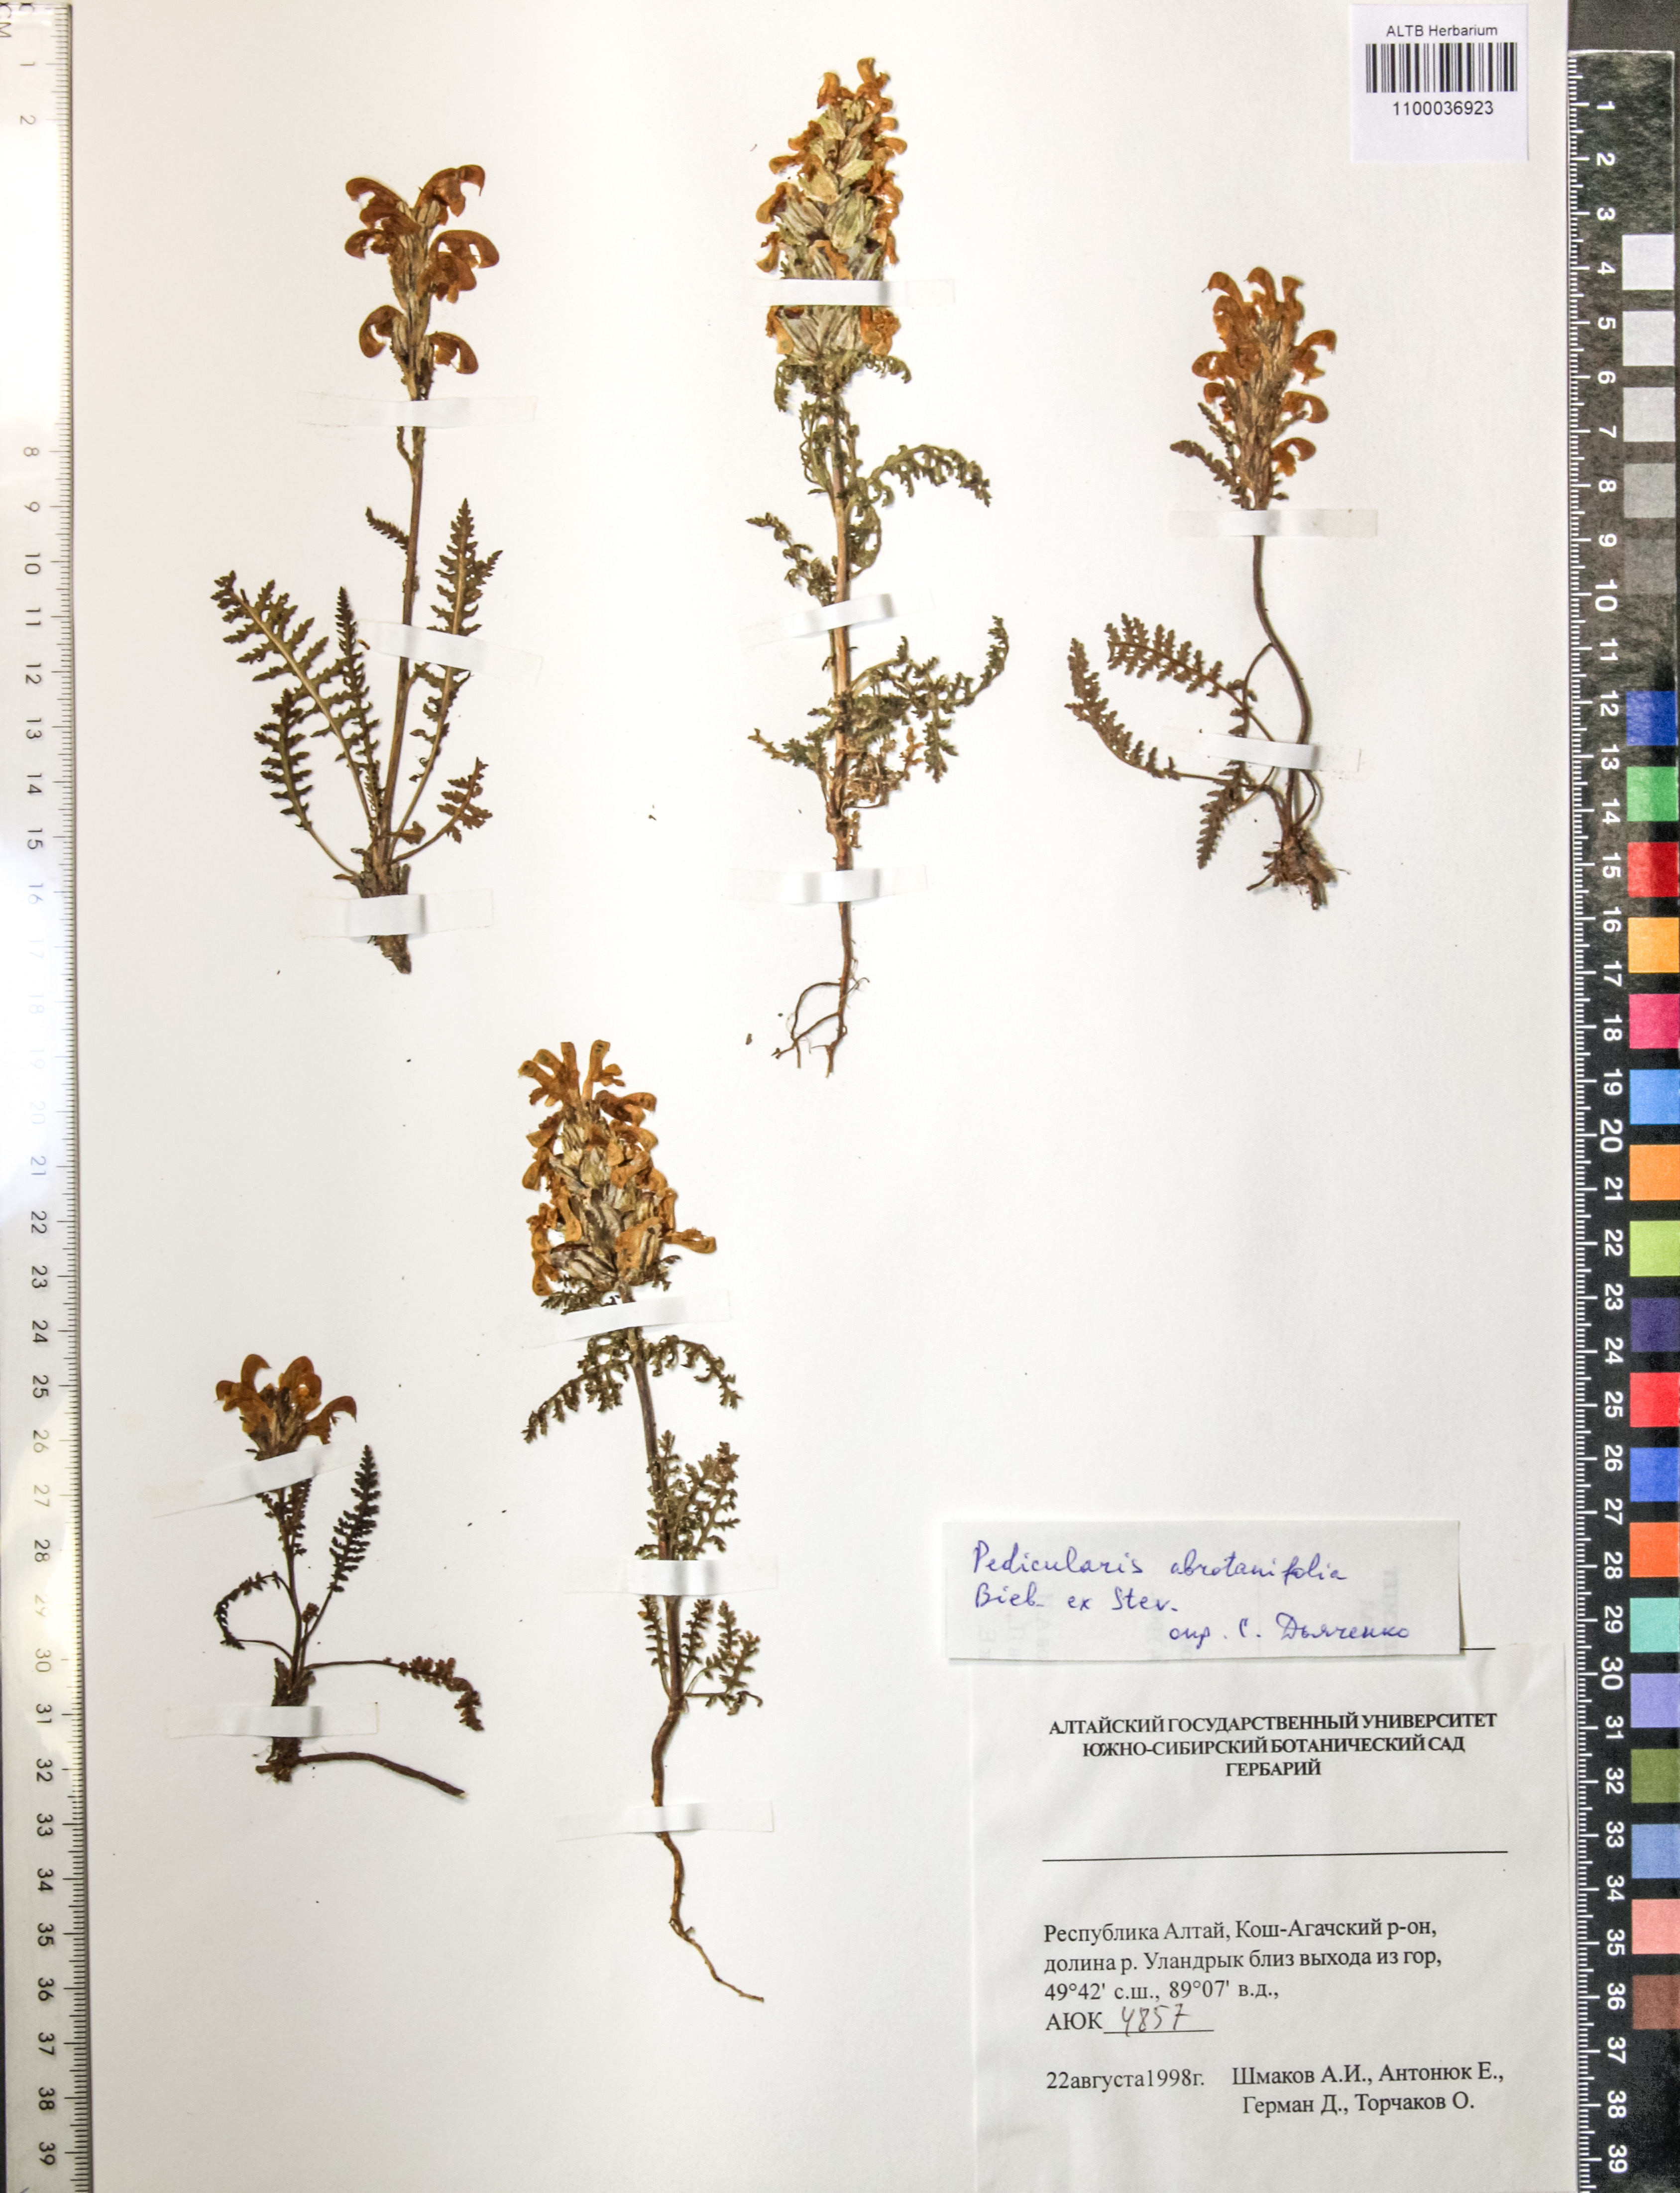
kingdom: Plantae
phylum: Tracheophyta
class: Magnoliopsida
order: Lamiales
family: Orobanchaceae
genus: Pedicularis
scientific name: Pedicularis abrotanifolia
